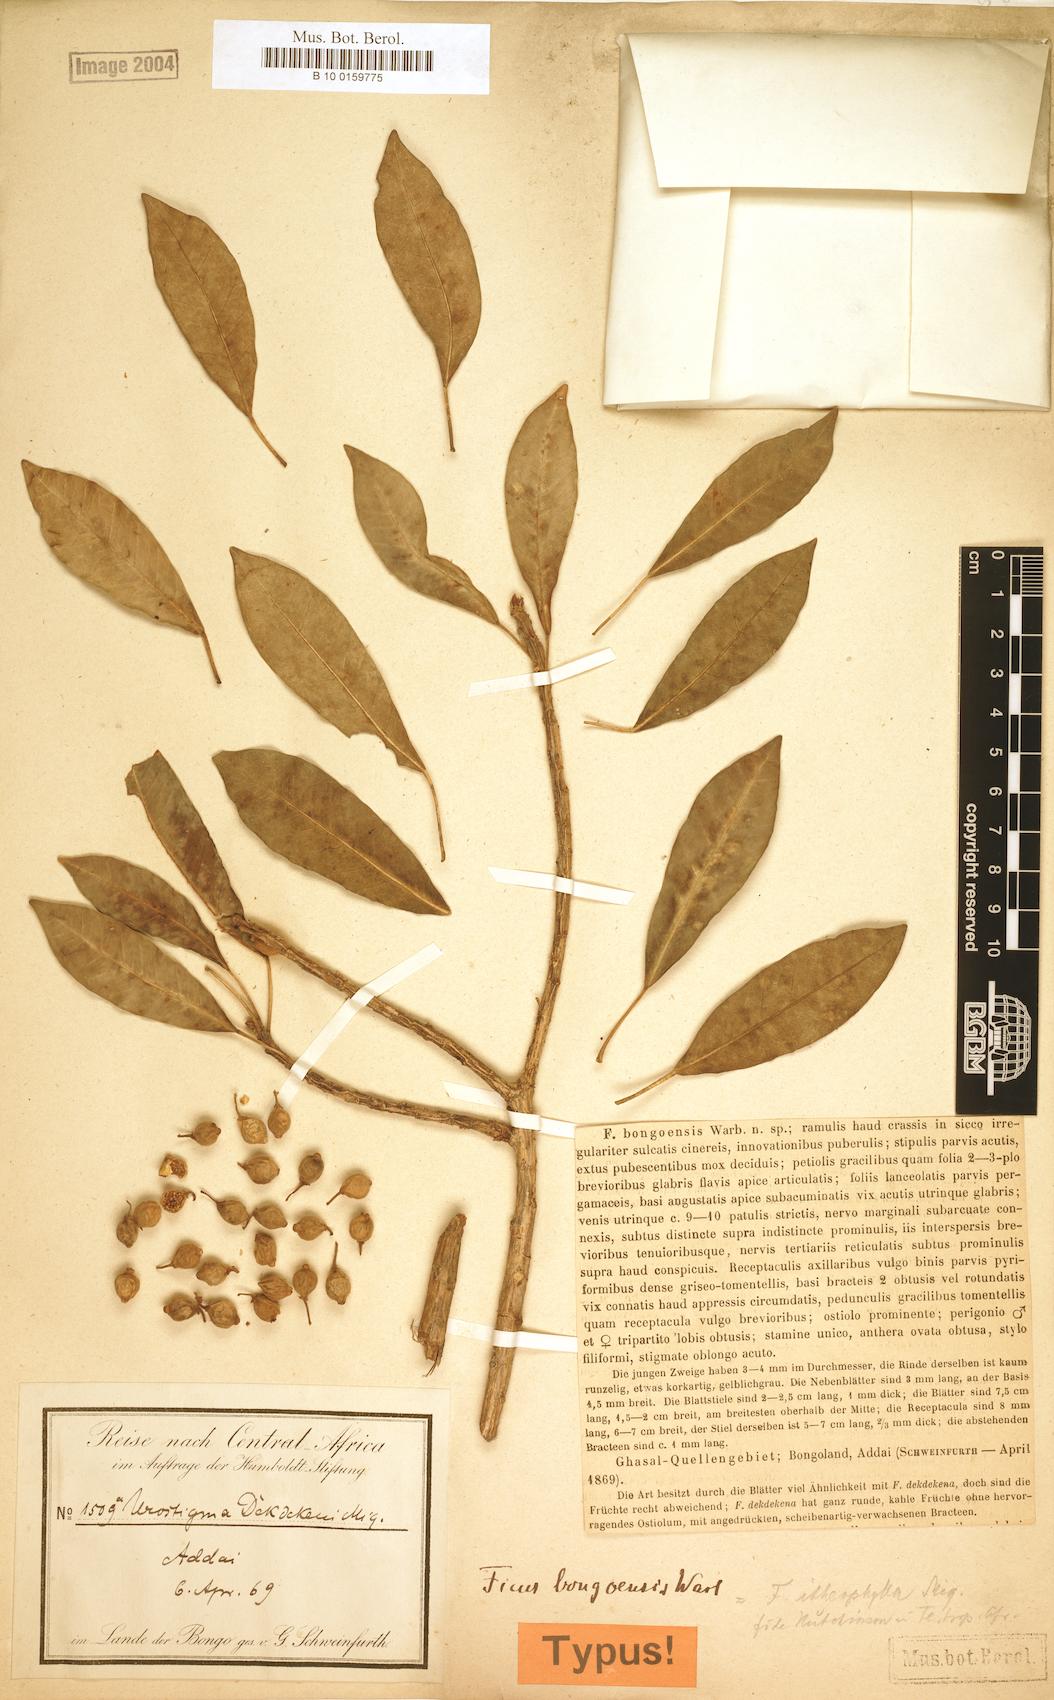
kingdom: Plantae
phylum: Tracheophyta
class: Magnoliopsida
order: Rosales
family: Moraceae
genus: Ficus
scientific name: Ficus thonningii
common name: Fig
